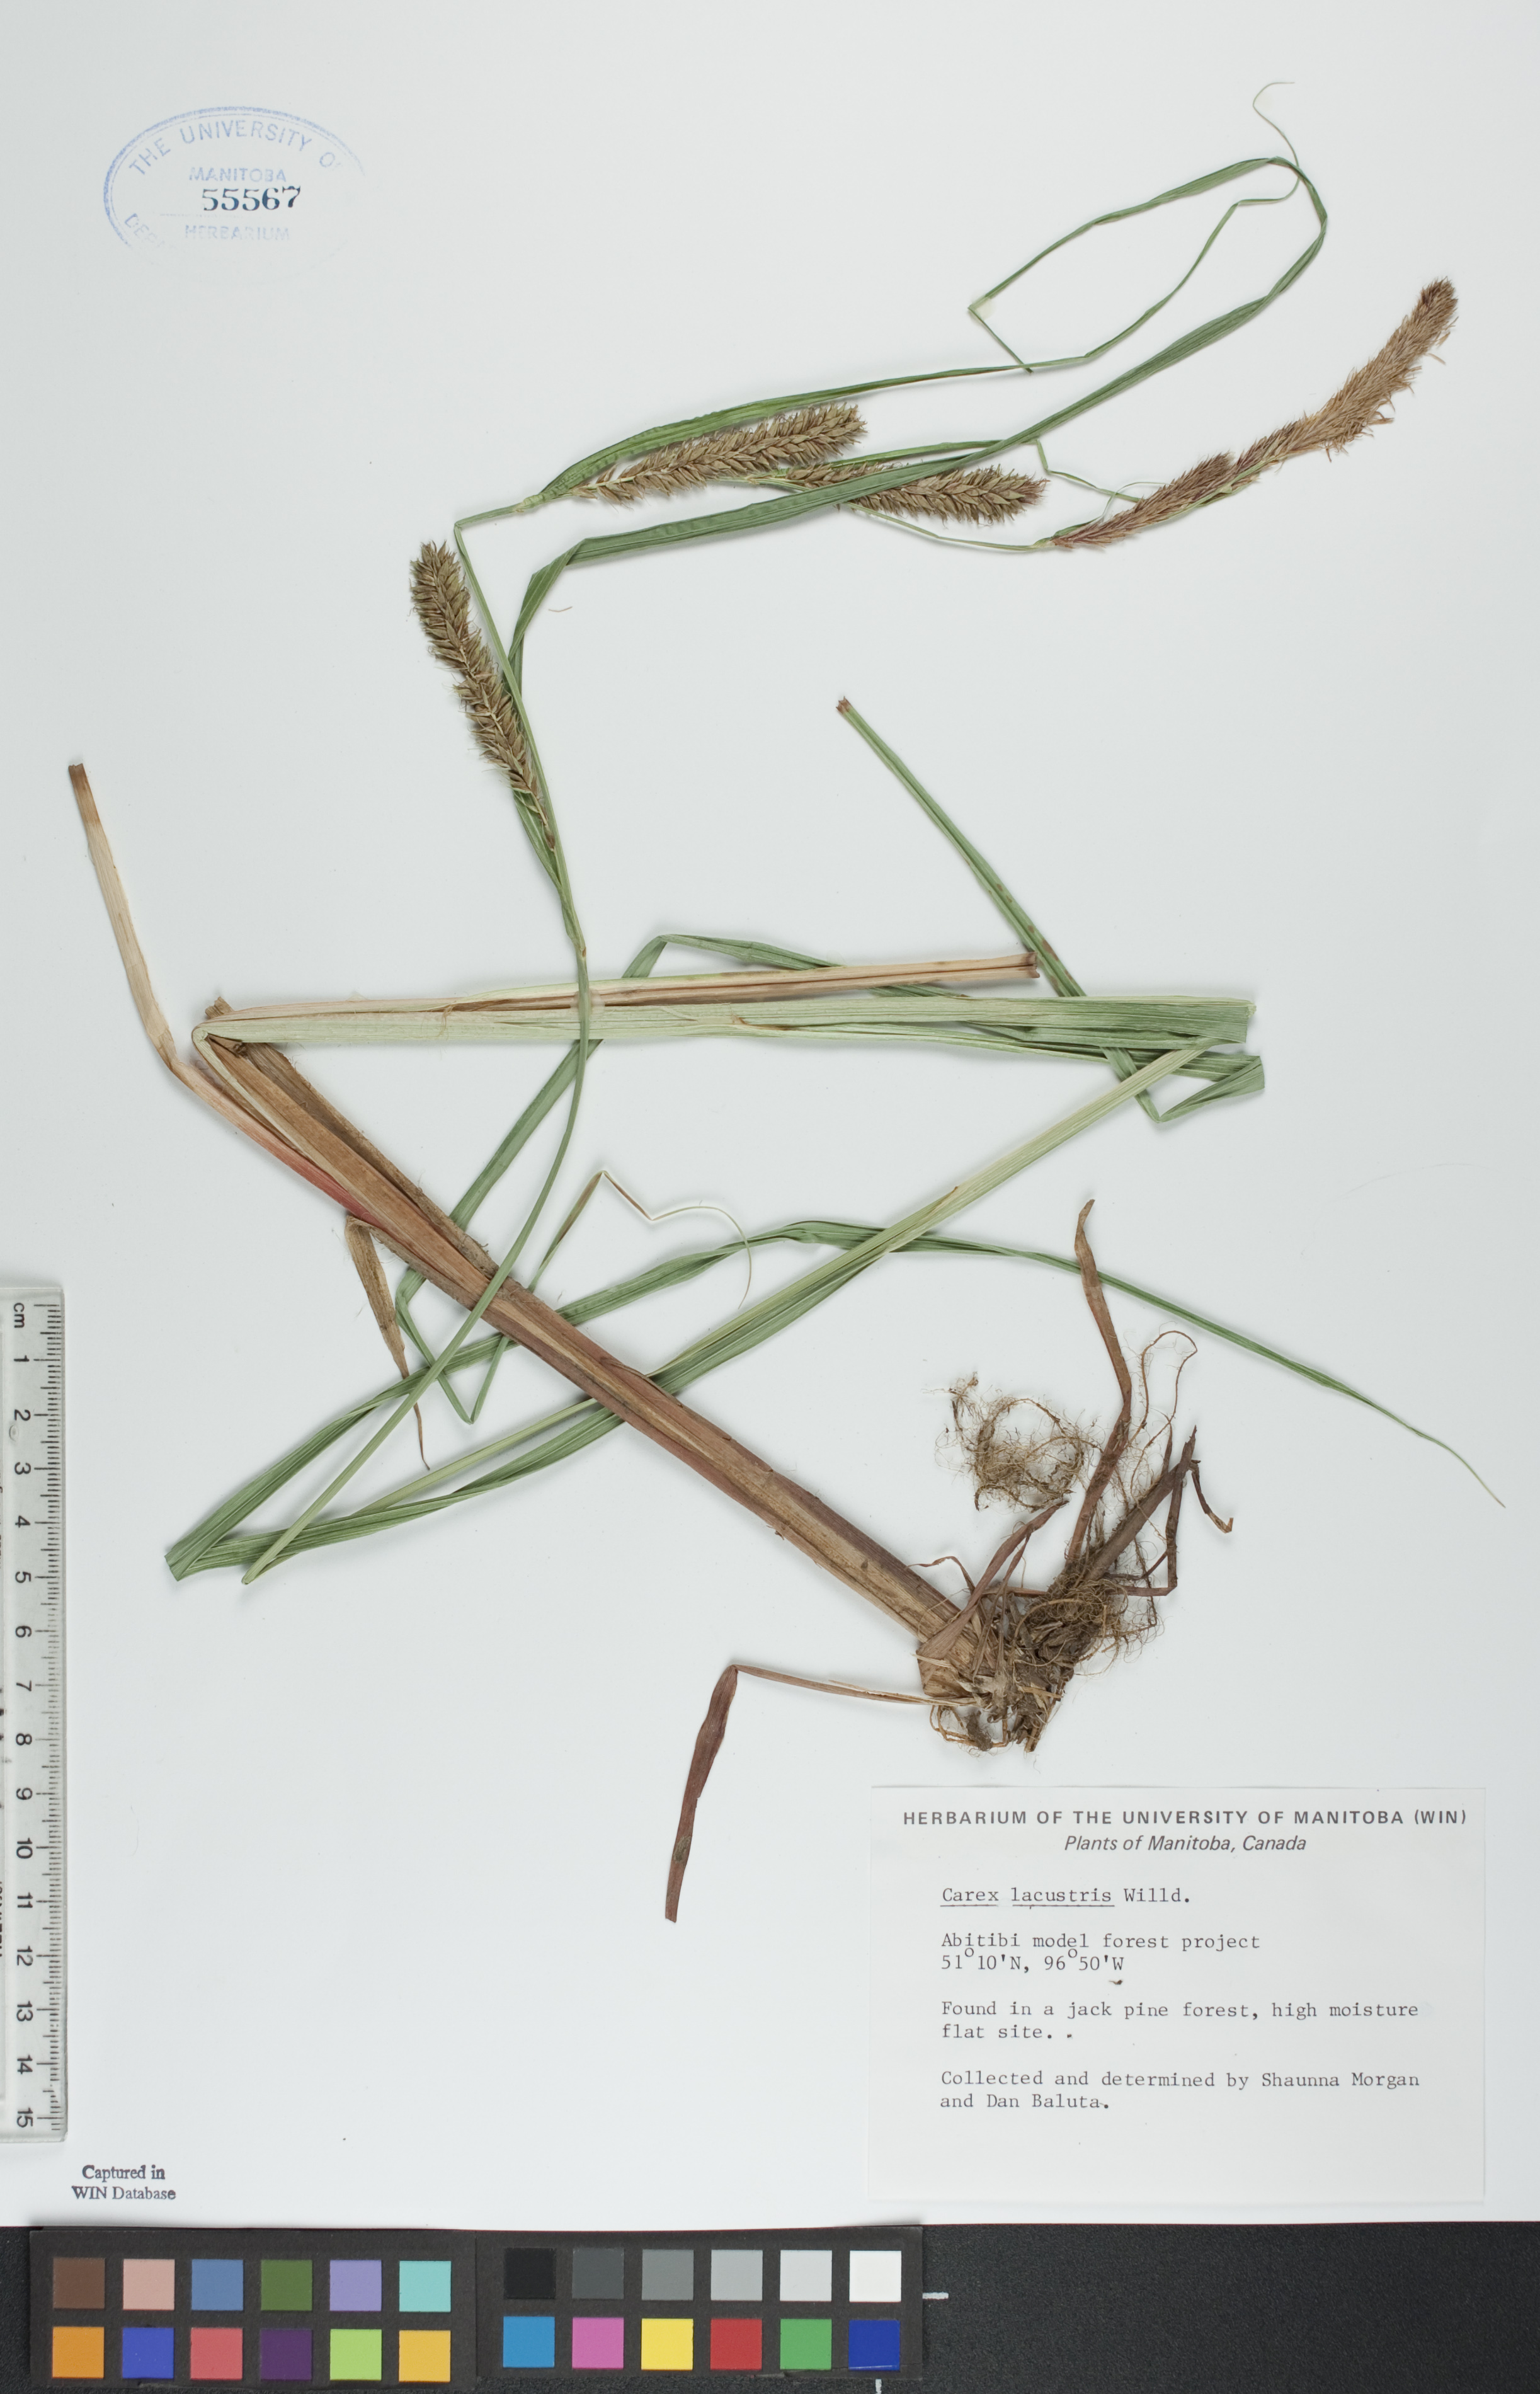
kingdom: Plantae
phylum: Tracheophyta
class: Liliopsida
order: Poales
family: Cyperaceae
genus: Carex
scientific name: Carex lacustris
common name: Common lake sedge
